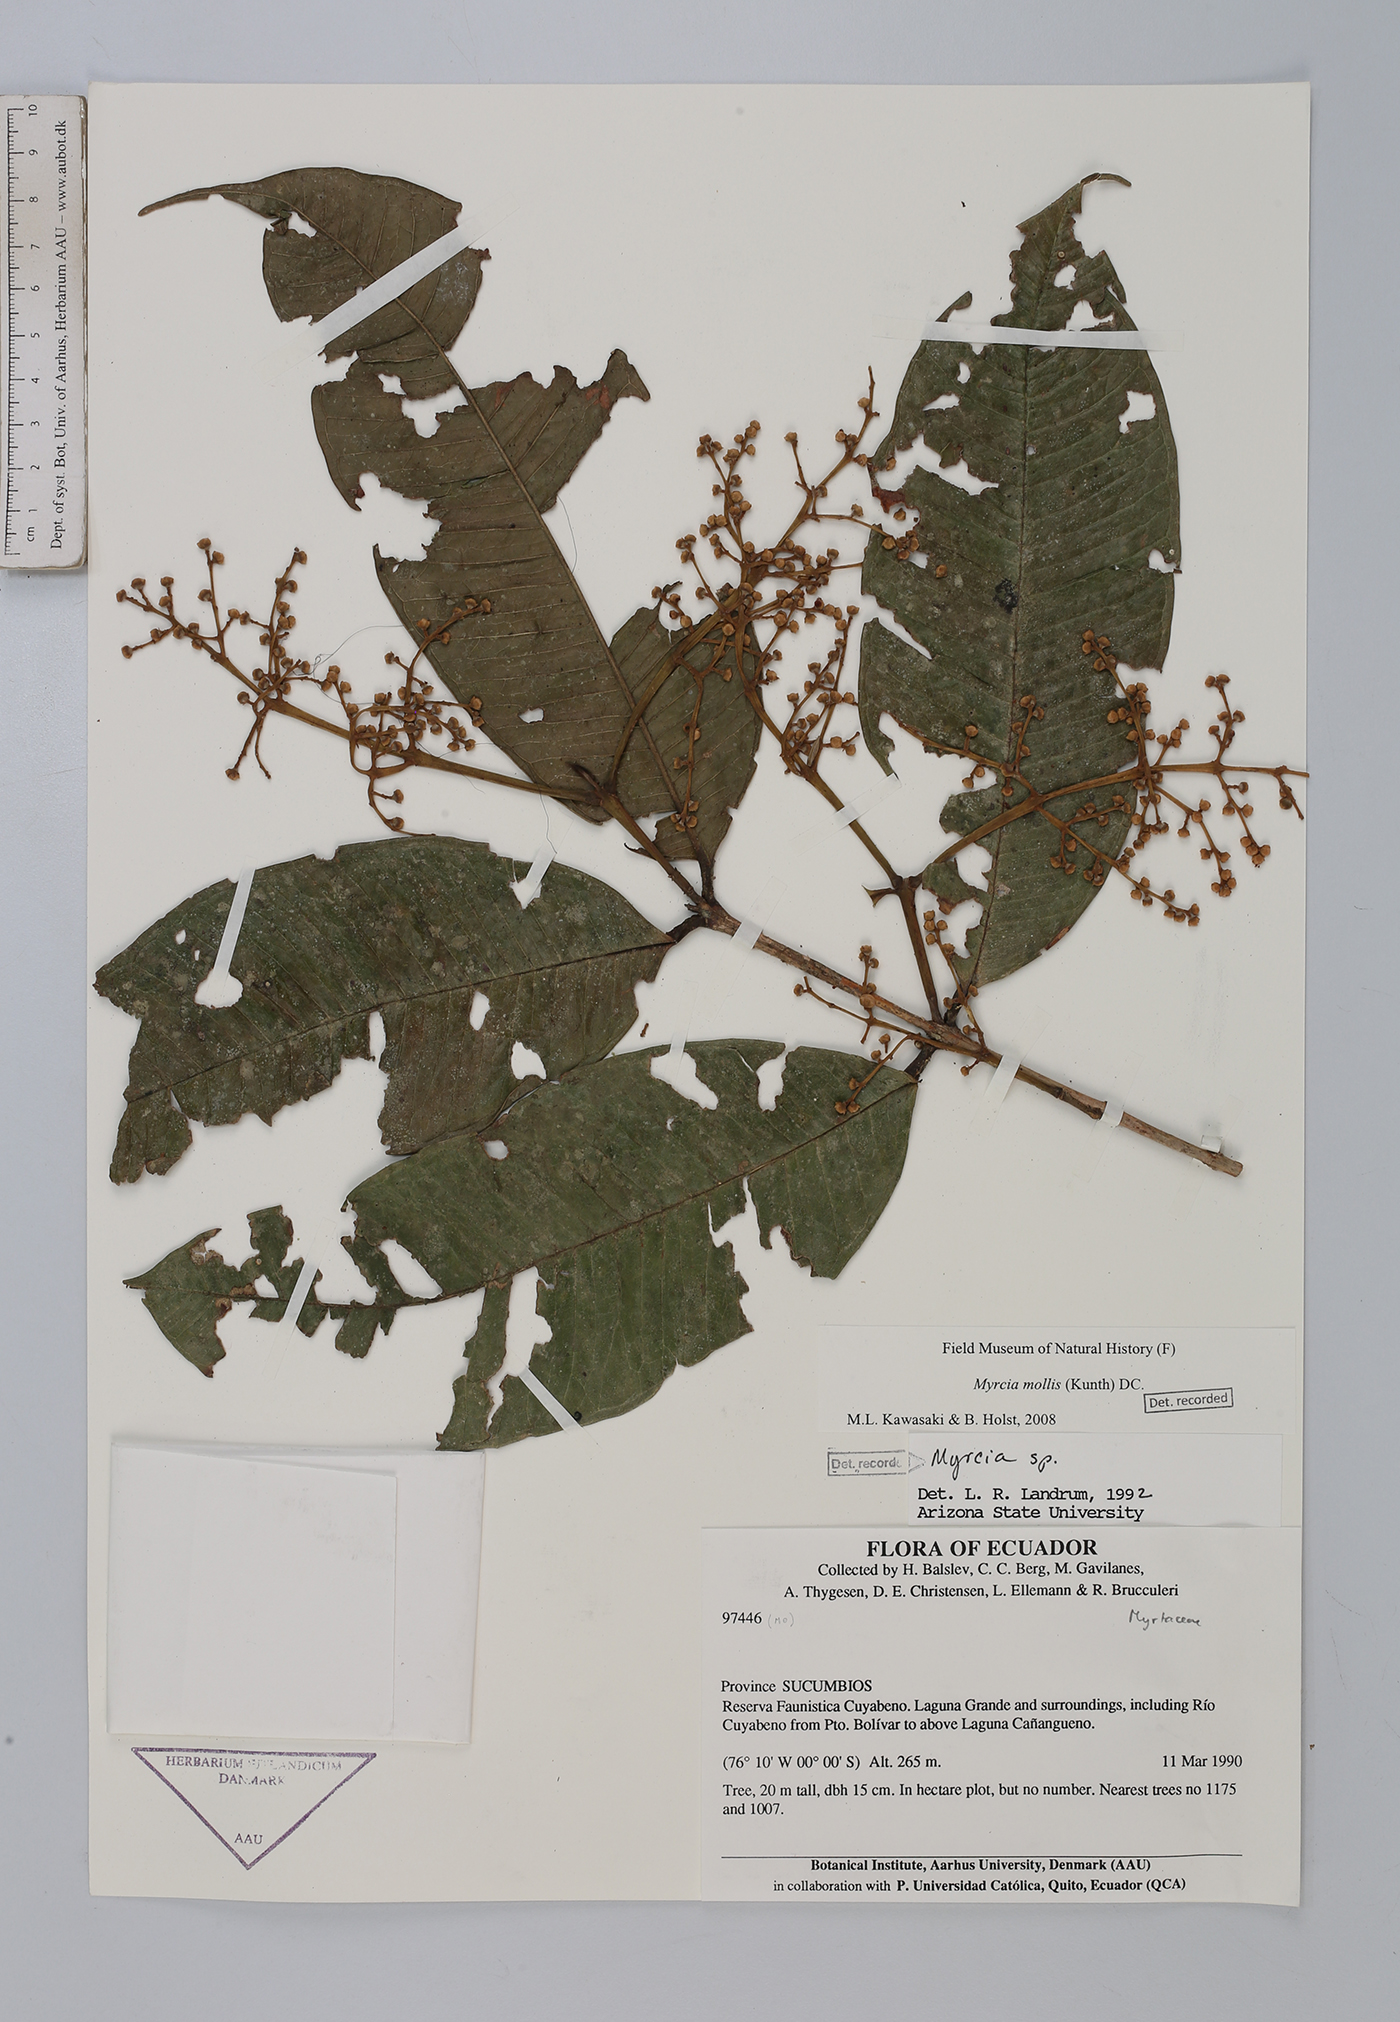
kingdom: Plantae
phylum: Tracheophyta
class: Magnoliopsida
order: Myrtales
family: Myrtaceae
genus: Myrcia
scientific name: Myrcia mollis
